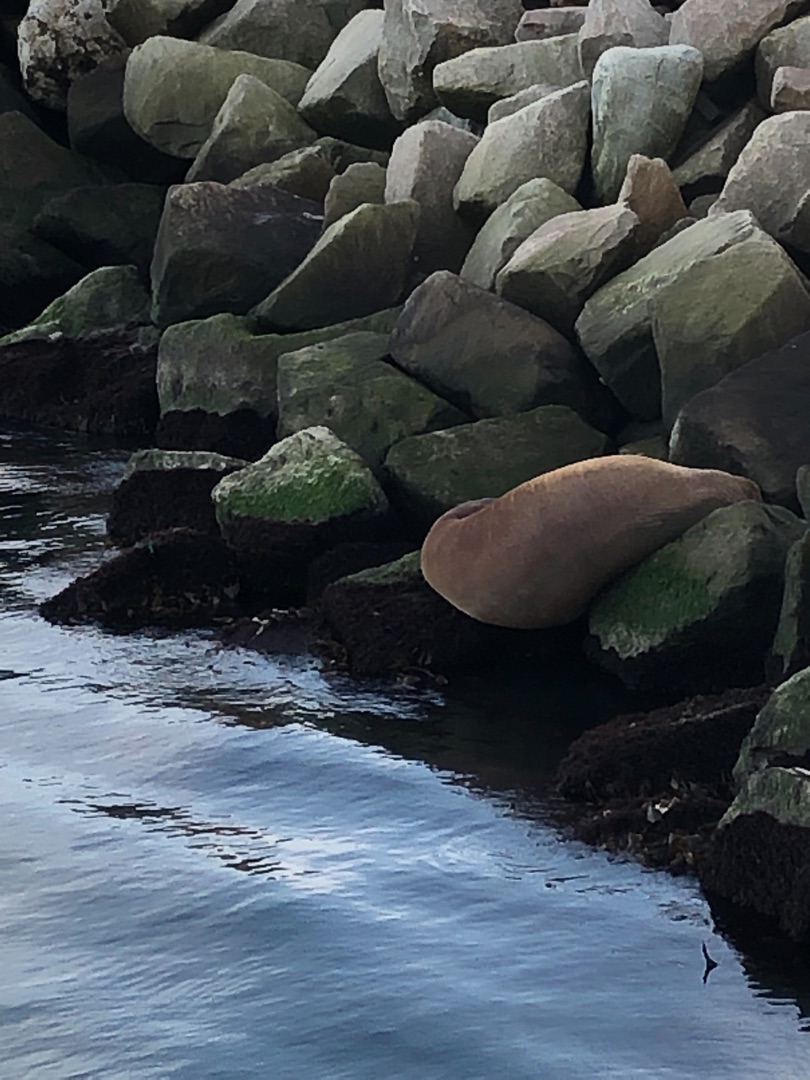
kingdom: Animalia
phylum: Chordata
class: Mammalia
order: Carnivora
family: Odobenidae
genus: Odobenus
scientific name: Odobenus rosmarus
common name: Hvalros
